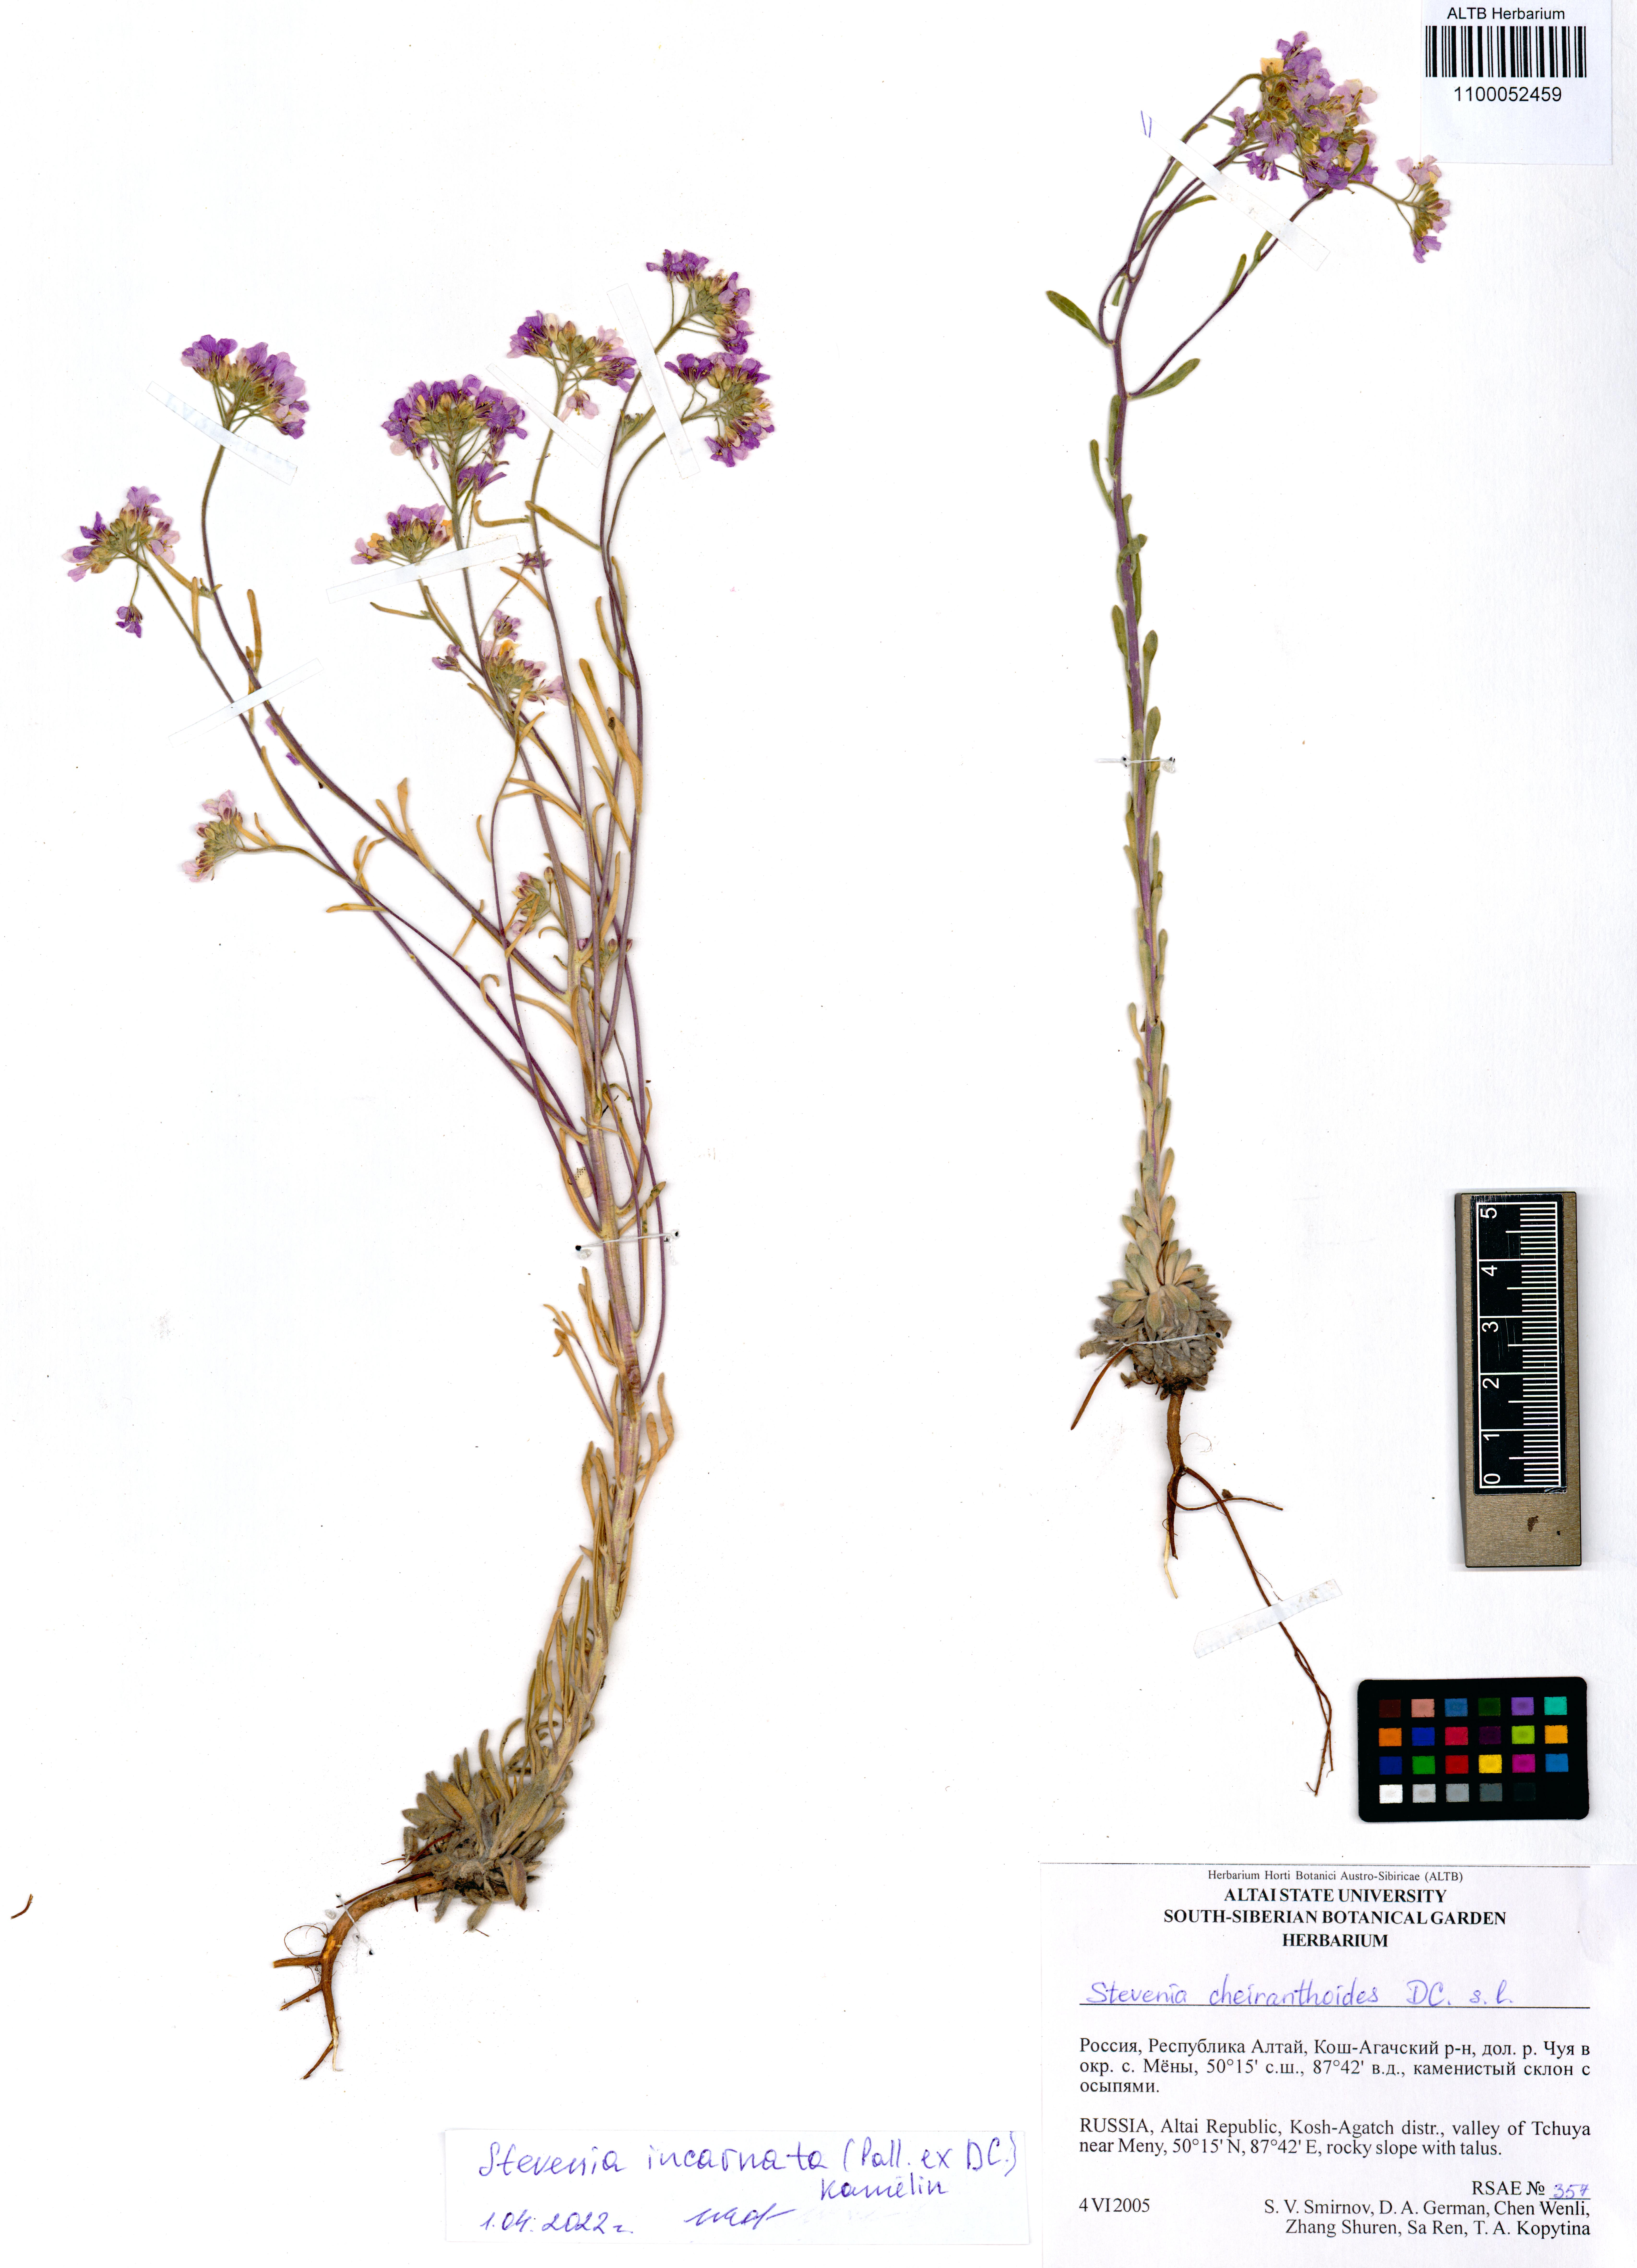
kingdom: Plantae
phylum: Tracheophyta
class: Magnoliopsida
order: Brassicales
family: Brassicaceae
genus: Stevenia
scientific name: Stevenia incarnata
